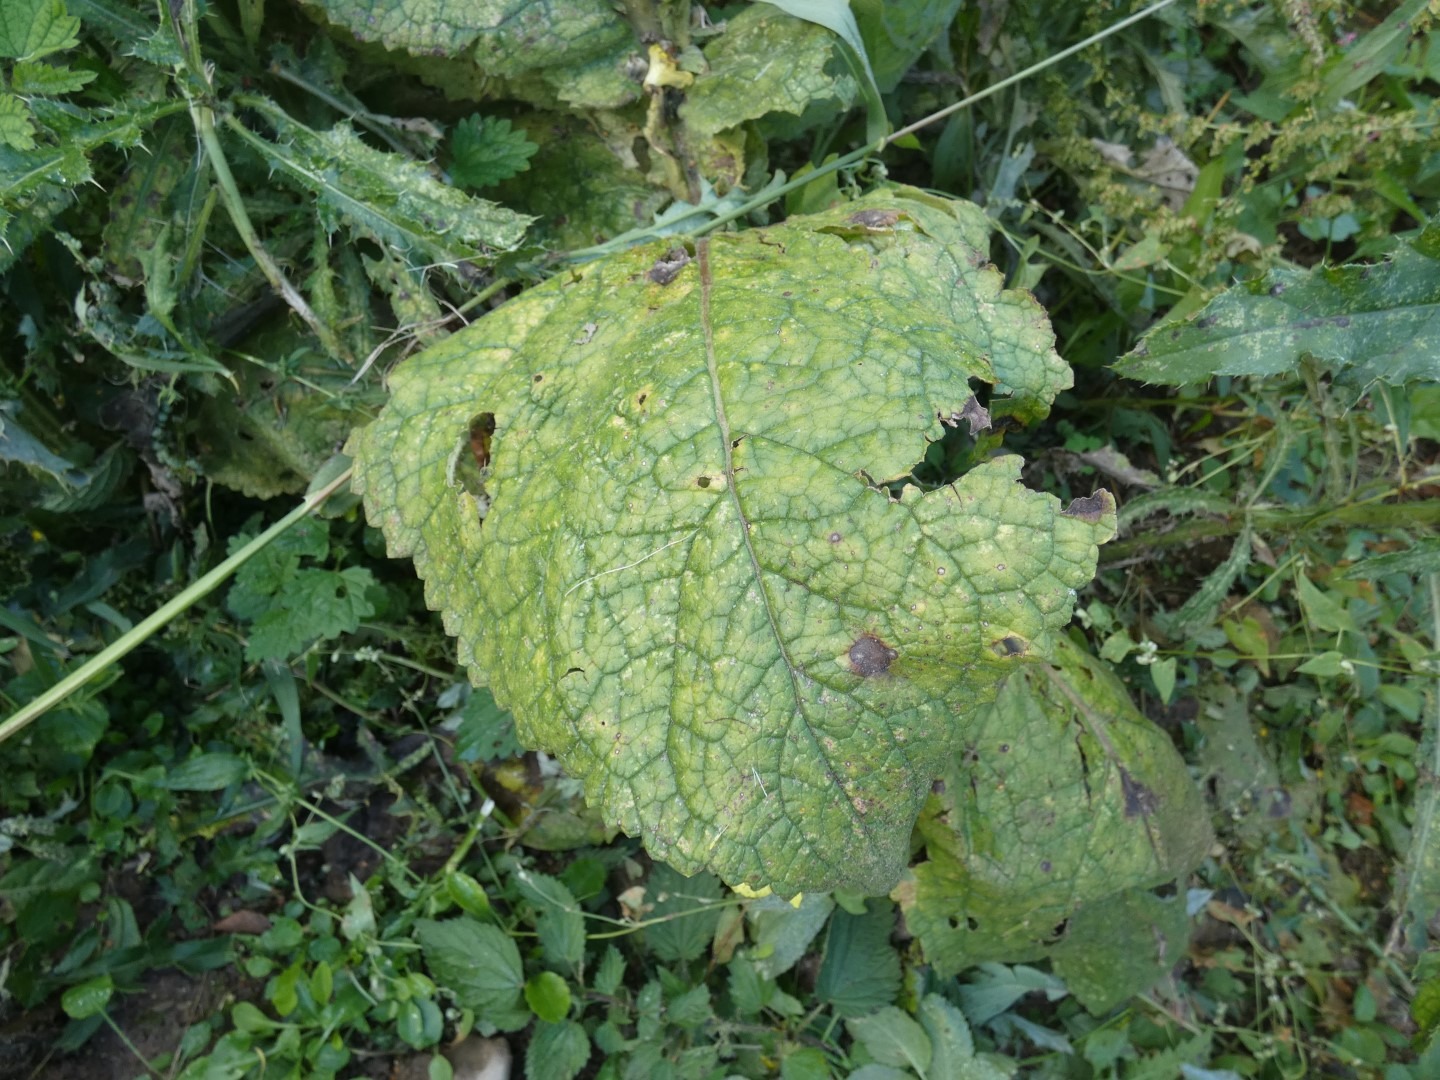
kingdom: Plantae
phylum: Tracheophyta
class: Magnoliopsida
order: Lamiales
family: Scrophulariaceae
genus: Verbascum
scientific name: Verbascum thapsus
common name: Filtbladet kongelys
